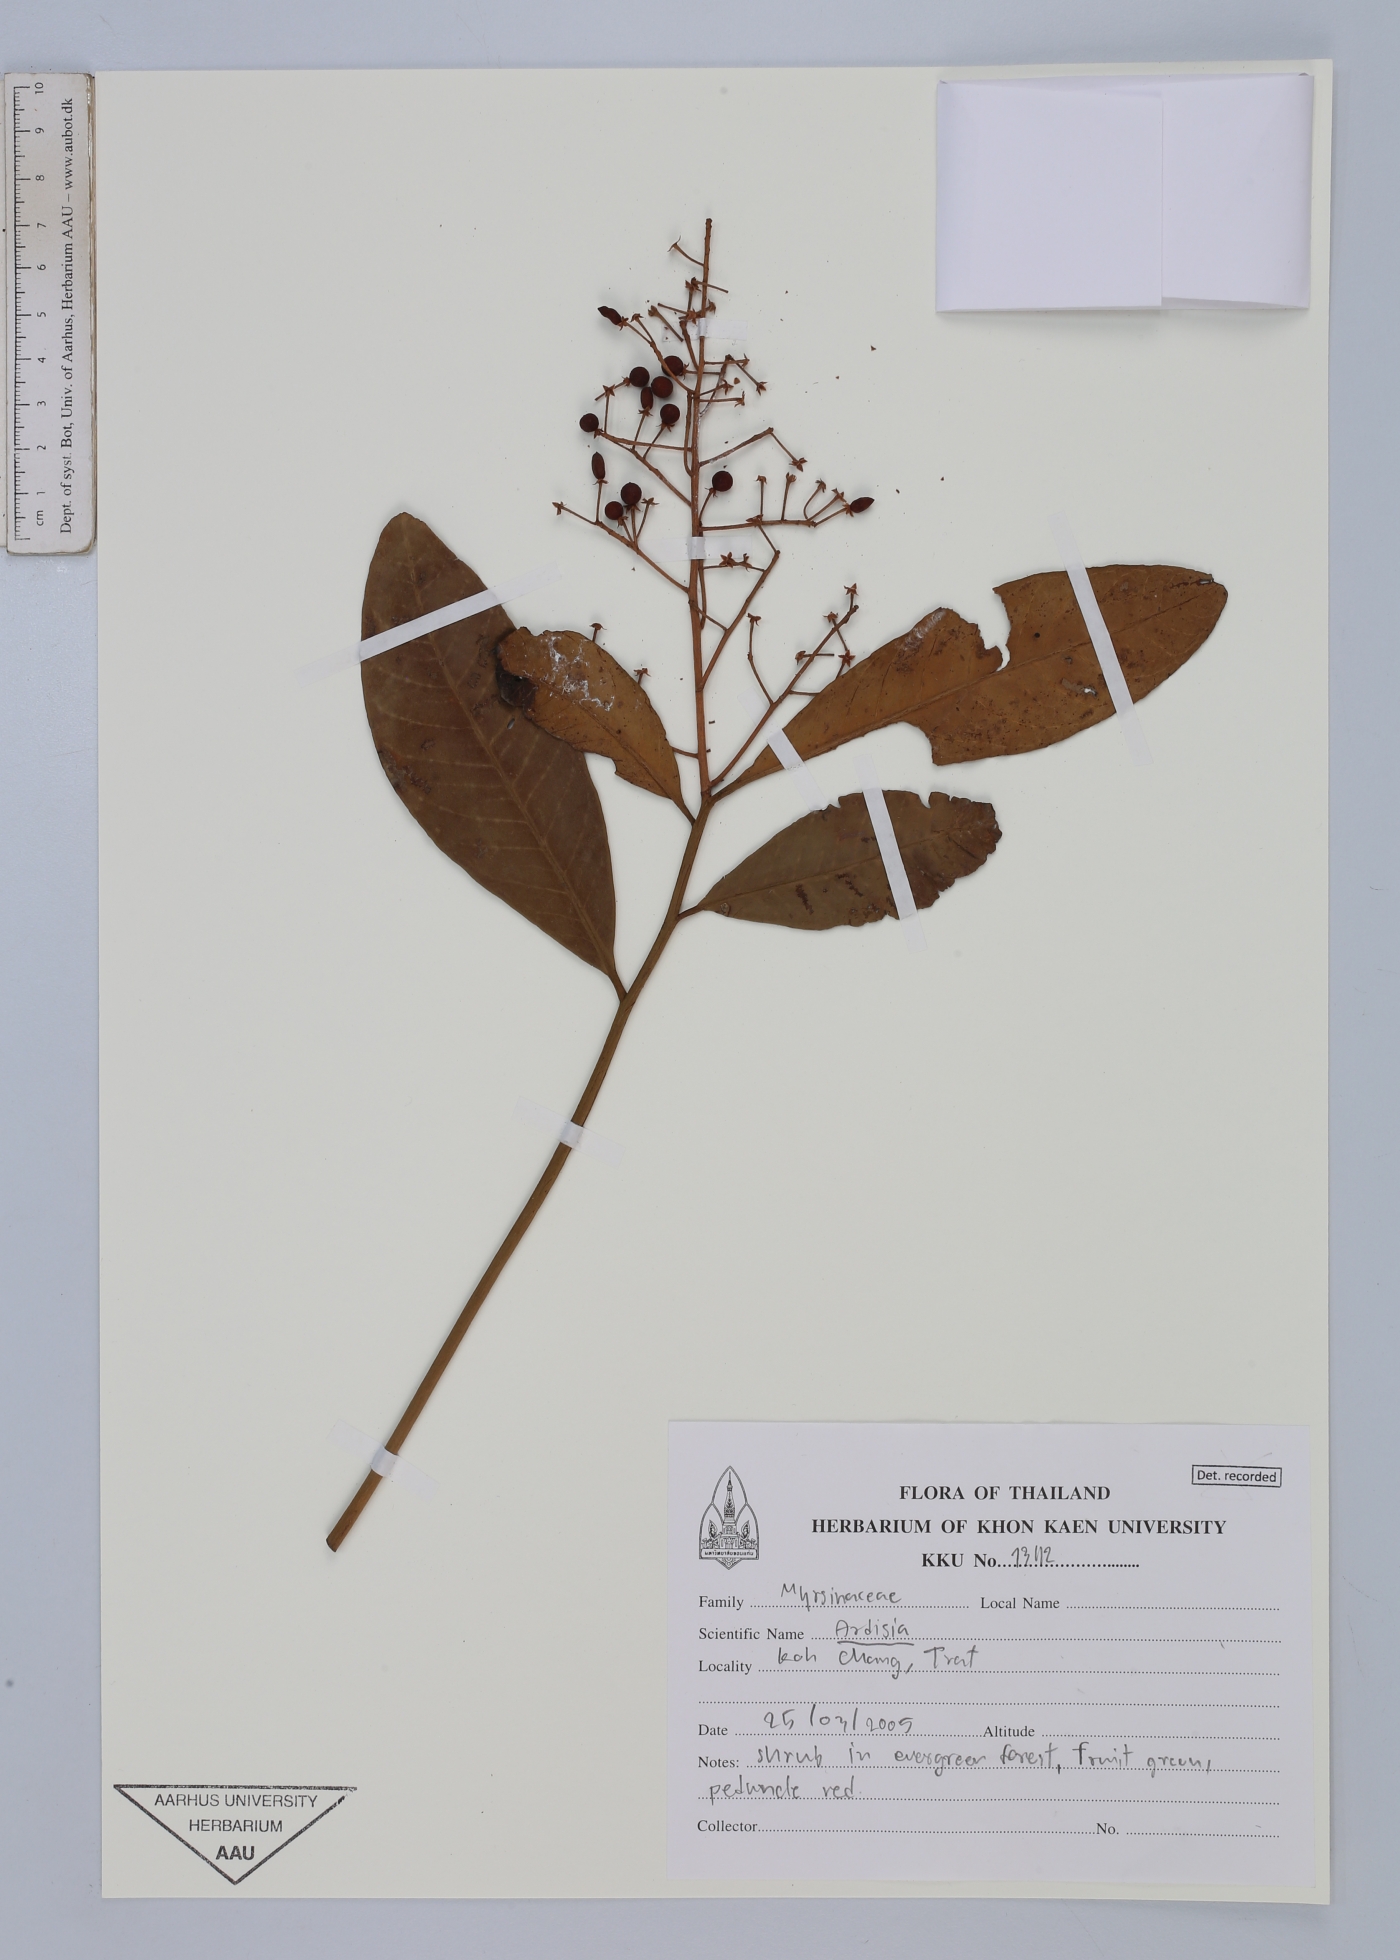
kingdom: Plantae
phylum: Tracheophyta
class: Magnoliopsida
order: Ericales
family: Primulaceae
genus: Ardisia
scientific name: Ardisia
